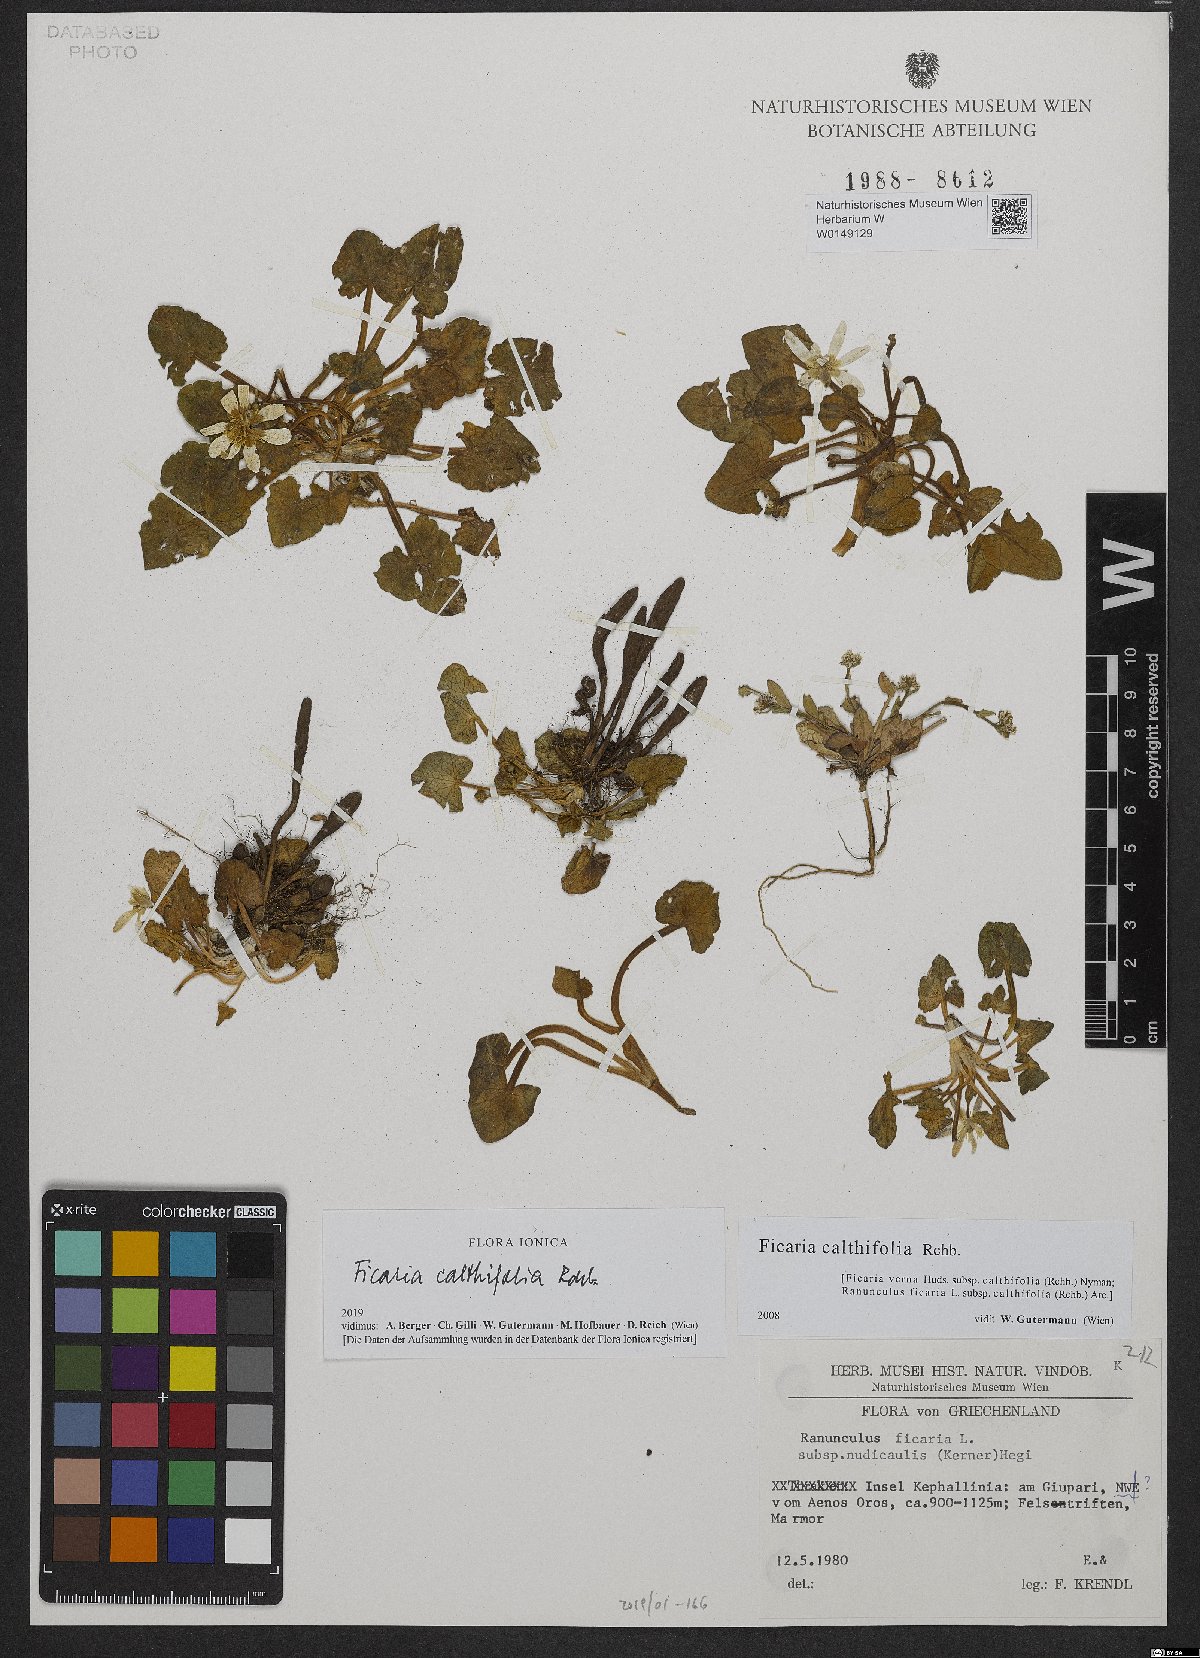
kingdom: Plantae
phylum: Tracheophyta
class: Magnoliopsida
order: Ranunculales
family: Ranunculaceae
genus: Ficaria
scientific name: Ficaria calthifolia
